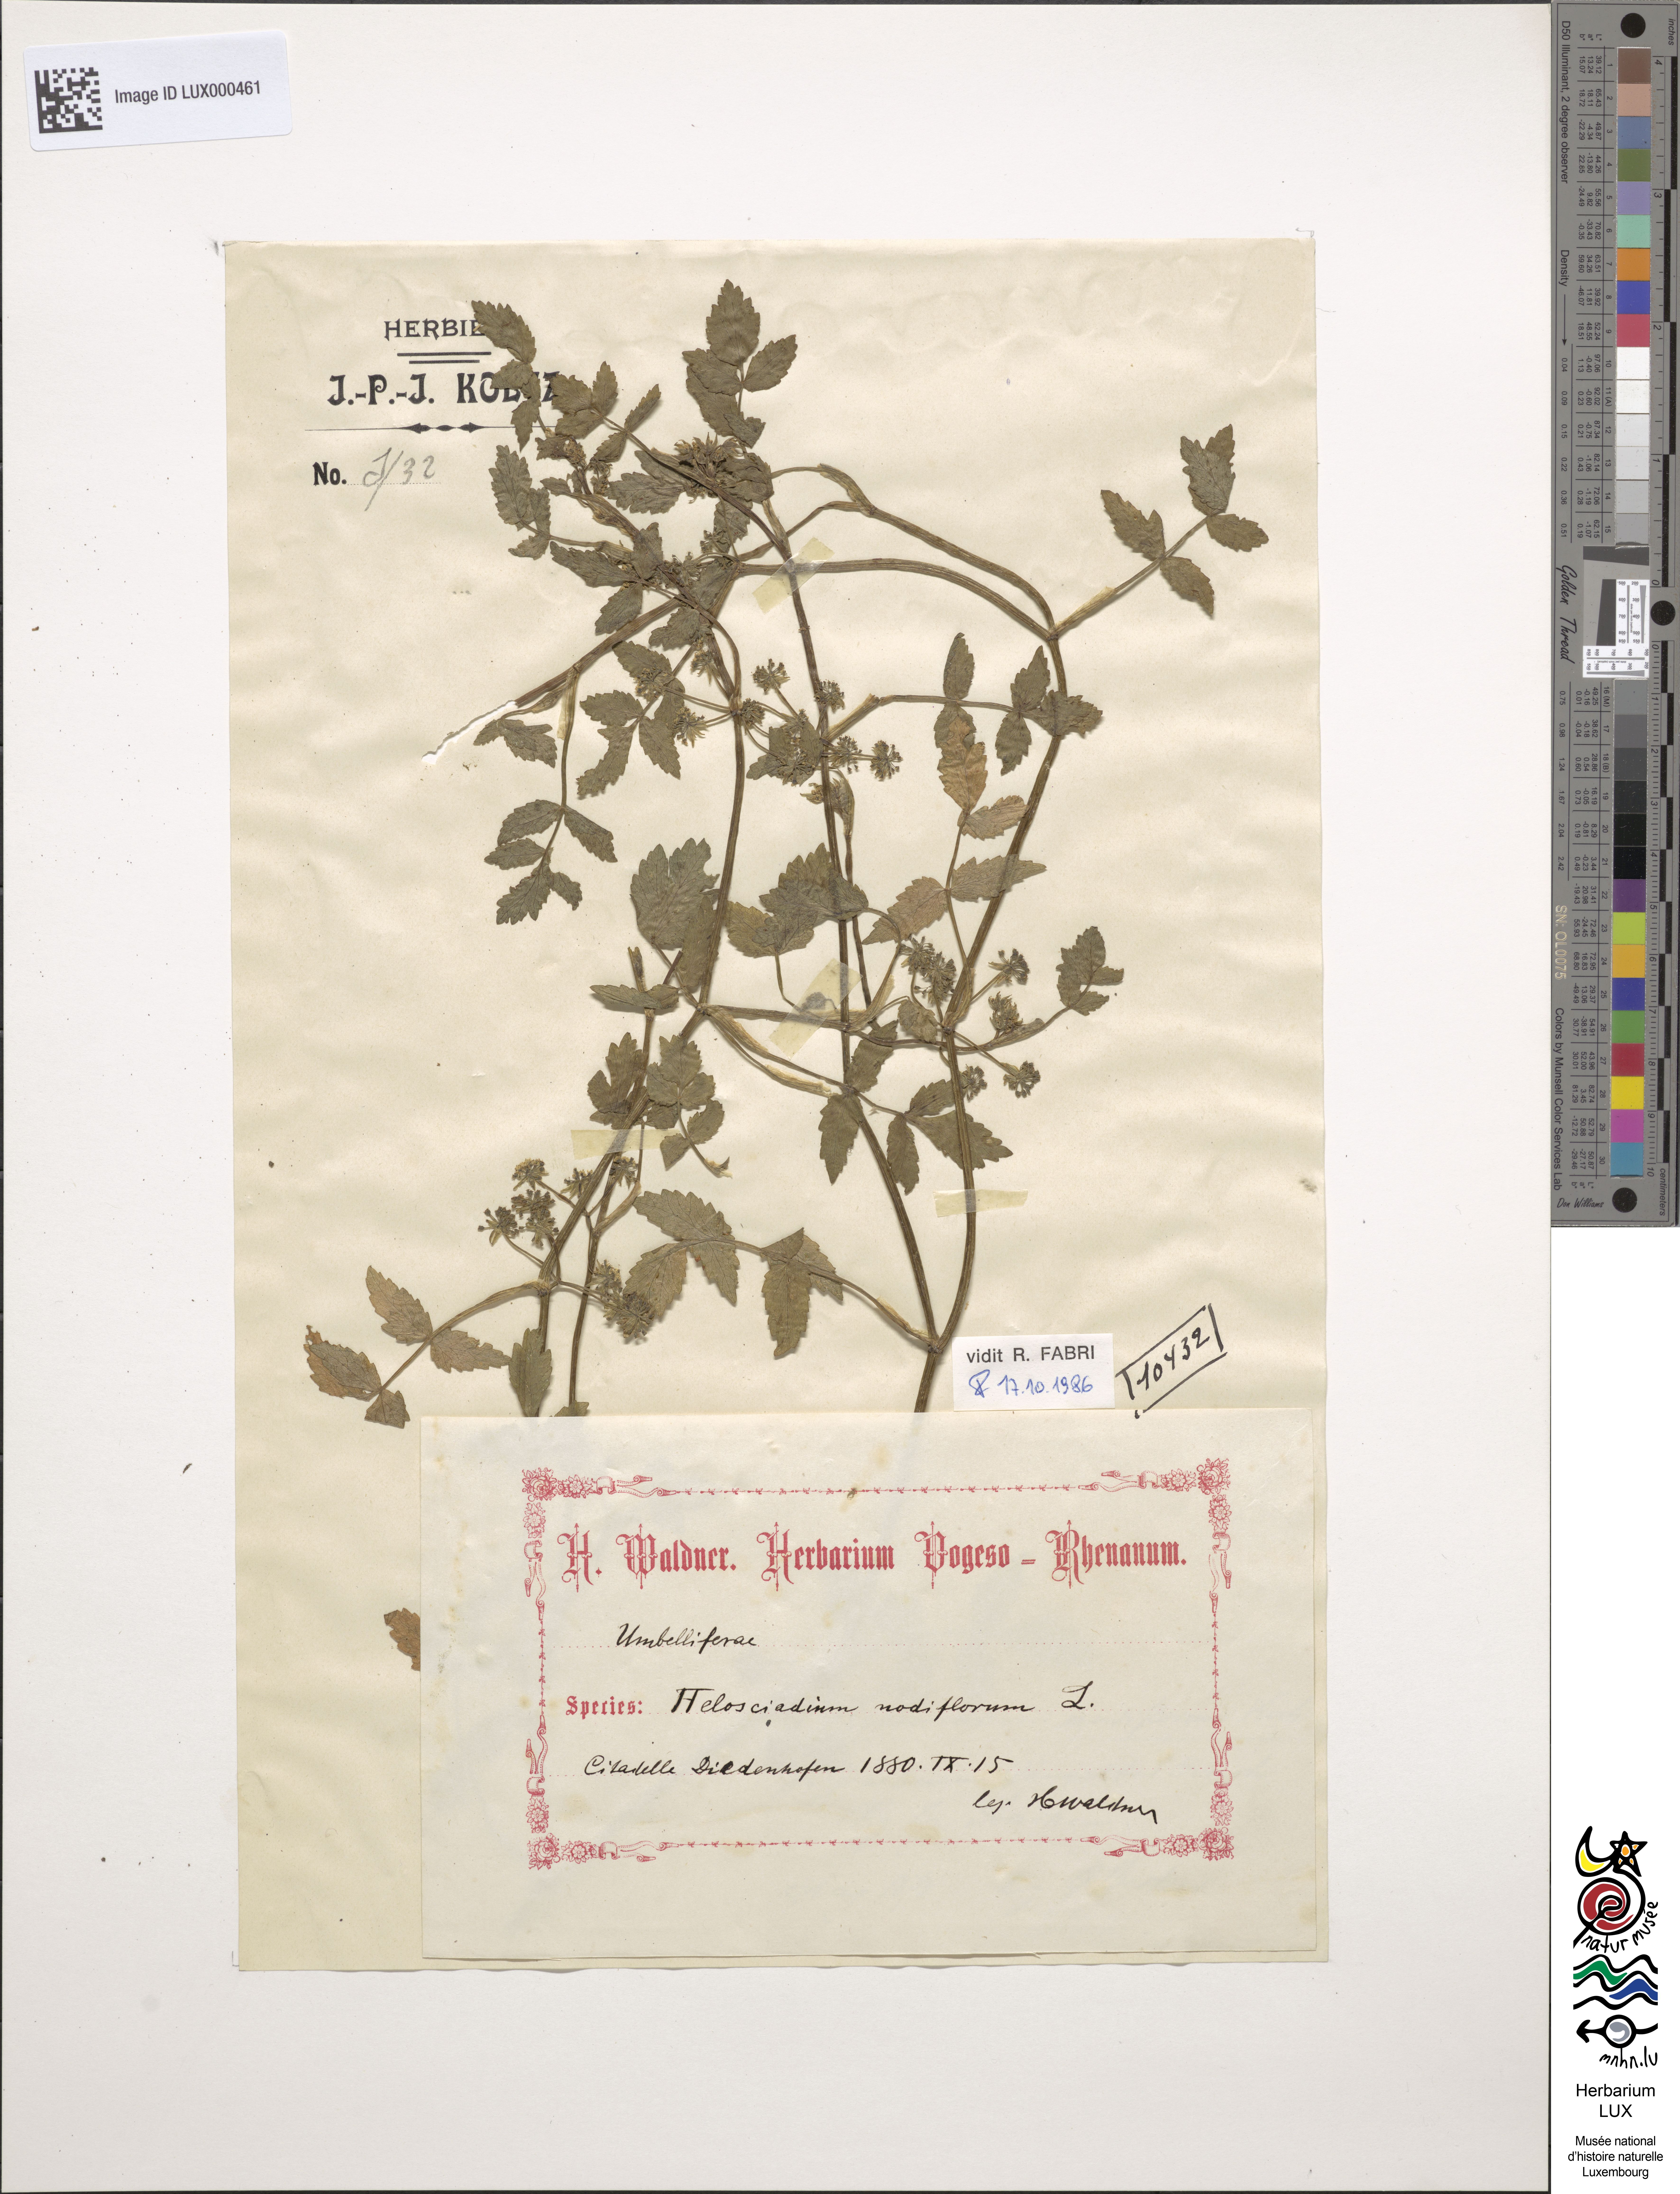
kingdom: Plantae
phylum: Tracheophyta
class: Magnoliopsida
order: Apiales
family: Apiaceae
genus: Helosciadium
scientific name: Helosciadium nodiflorum
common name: Fool's-watercress
